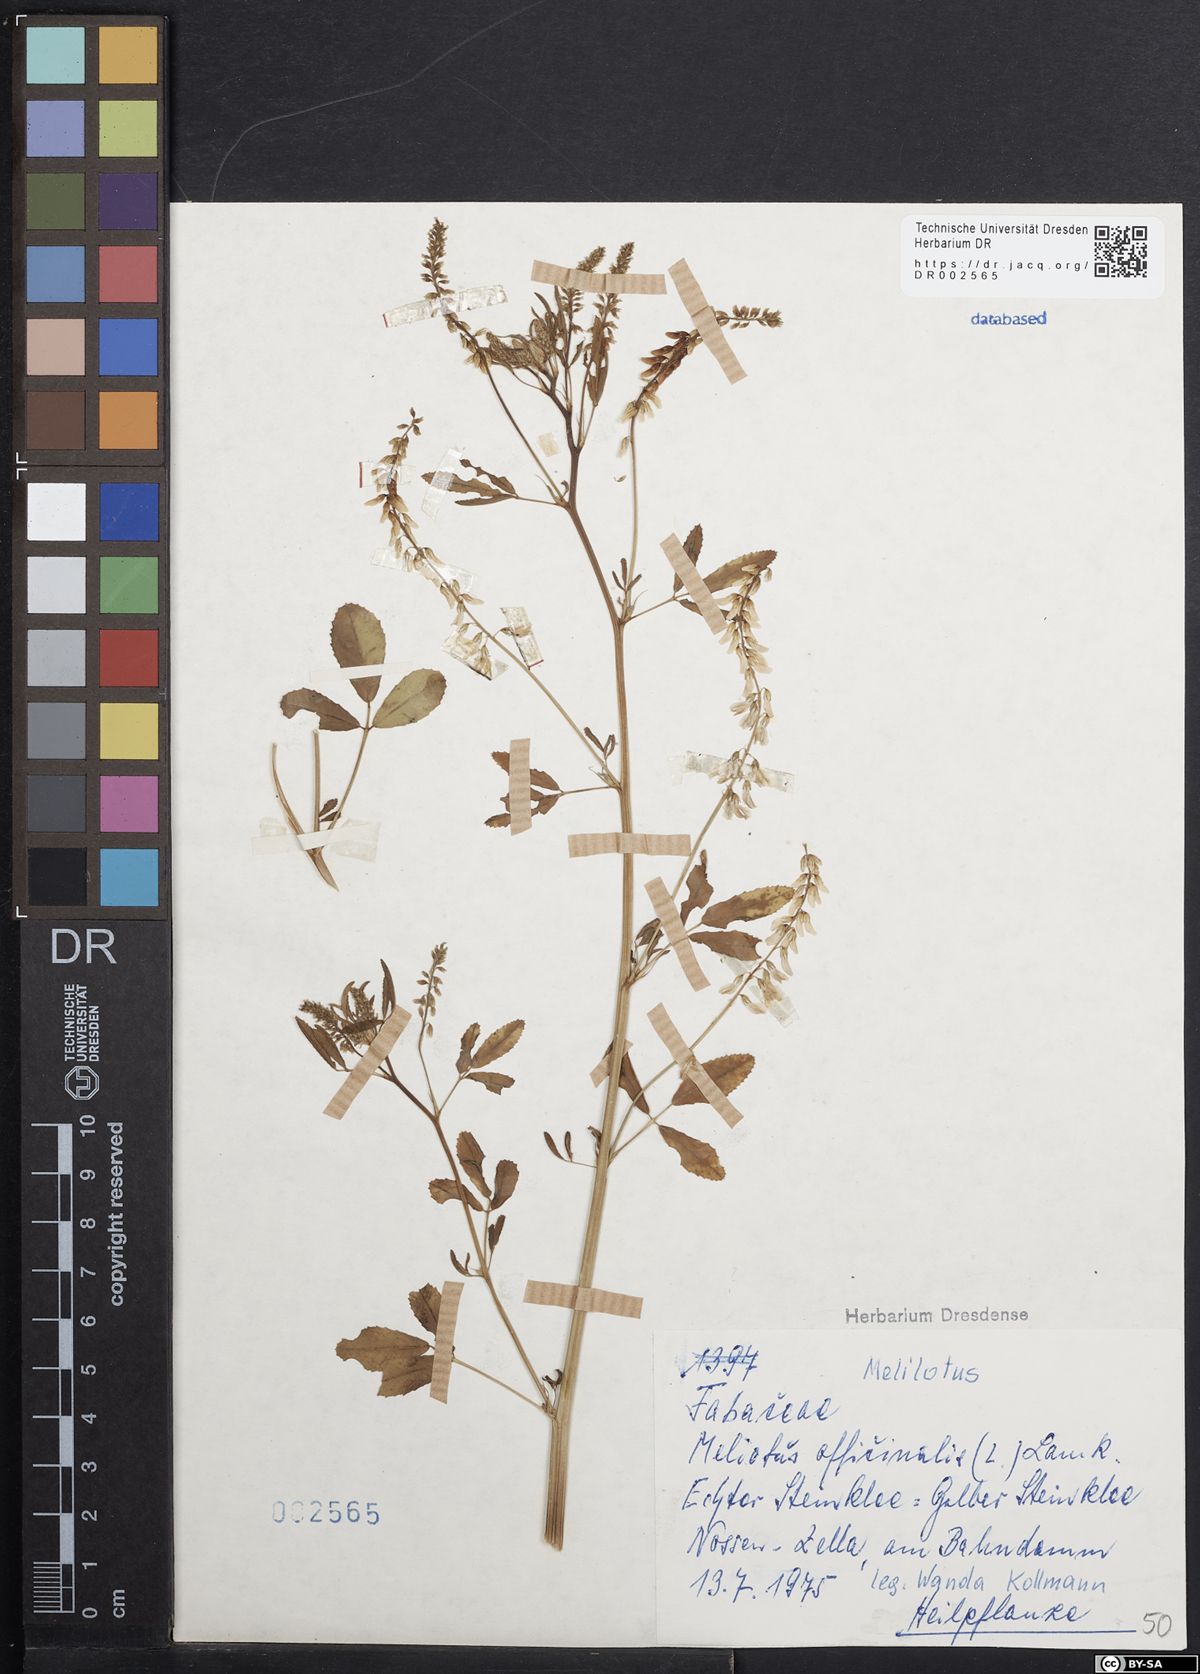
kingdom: Plantae
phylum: Tracheophyta
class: Magnoliopsida
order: Fabales
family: Fabaceae
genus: Melilotus
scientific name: Melilotus officinalis
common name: Sweetclover
